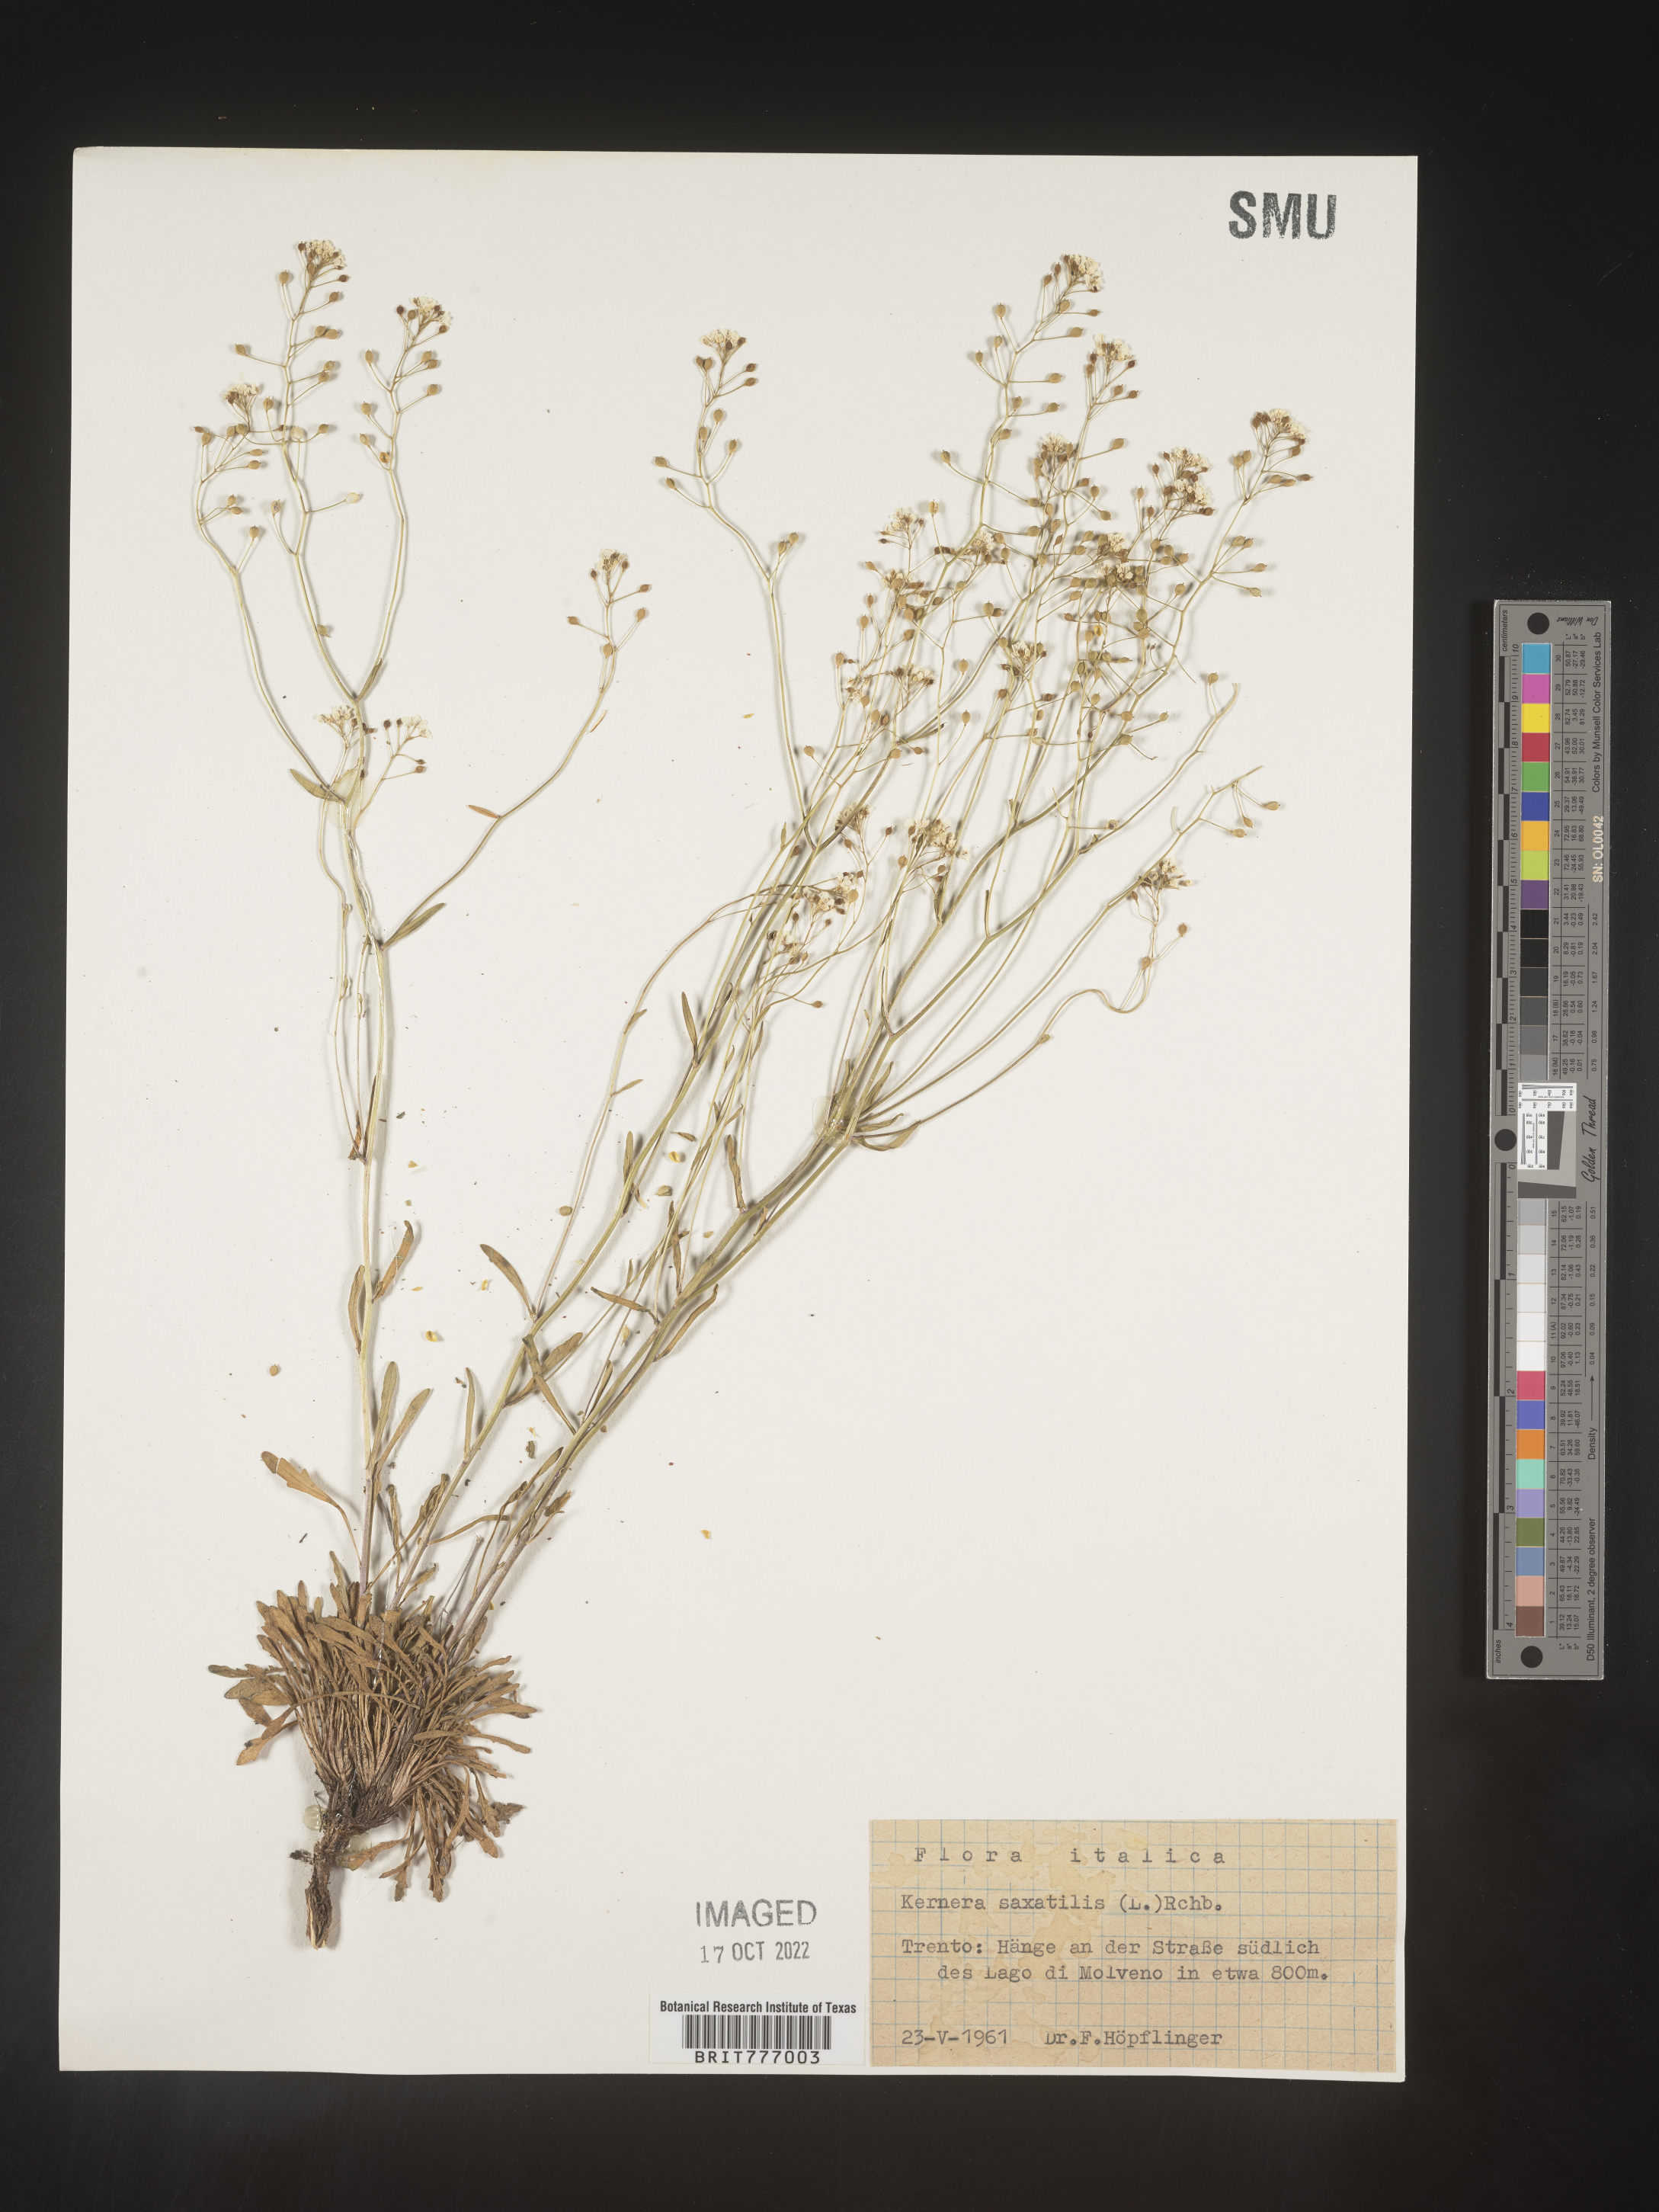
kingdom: Plantae
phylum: Tracheophyta
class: Magnoliopsida
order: Brassicales
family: Brassicaceae
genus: Kernera
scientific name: Kernera
